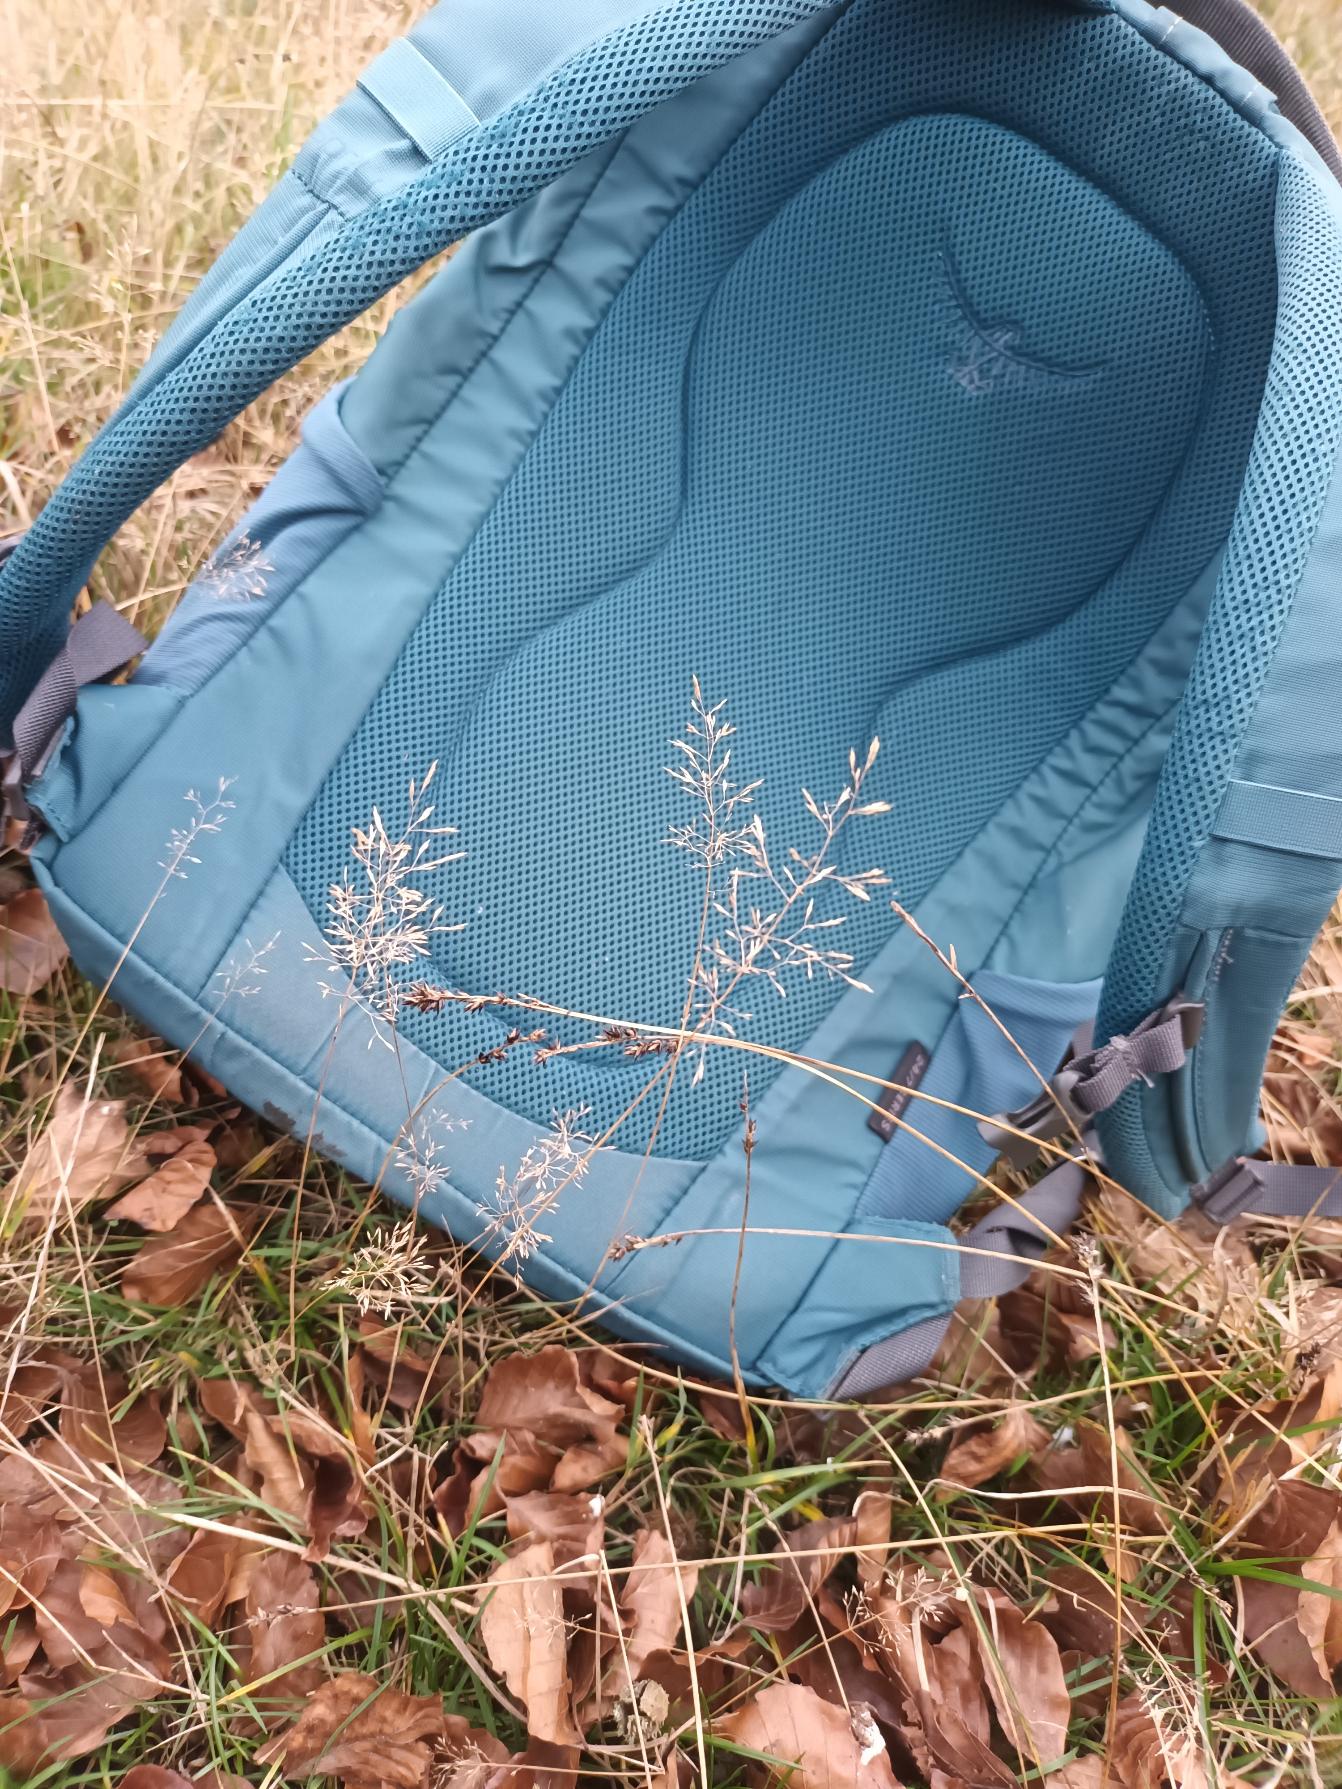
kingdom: Plantae
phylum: Tracheophyta
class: Liliopsida
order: Poales
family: Poaceae
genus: Agrostis
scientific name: Agrostis capillaris
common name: Almindelig hvene
